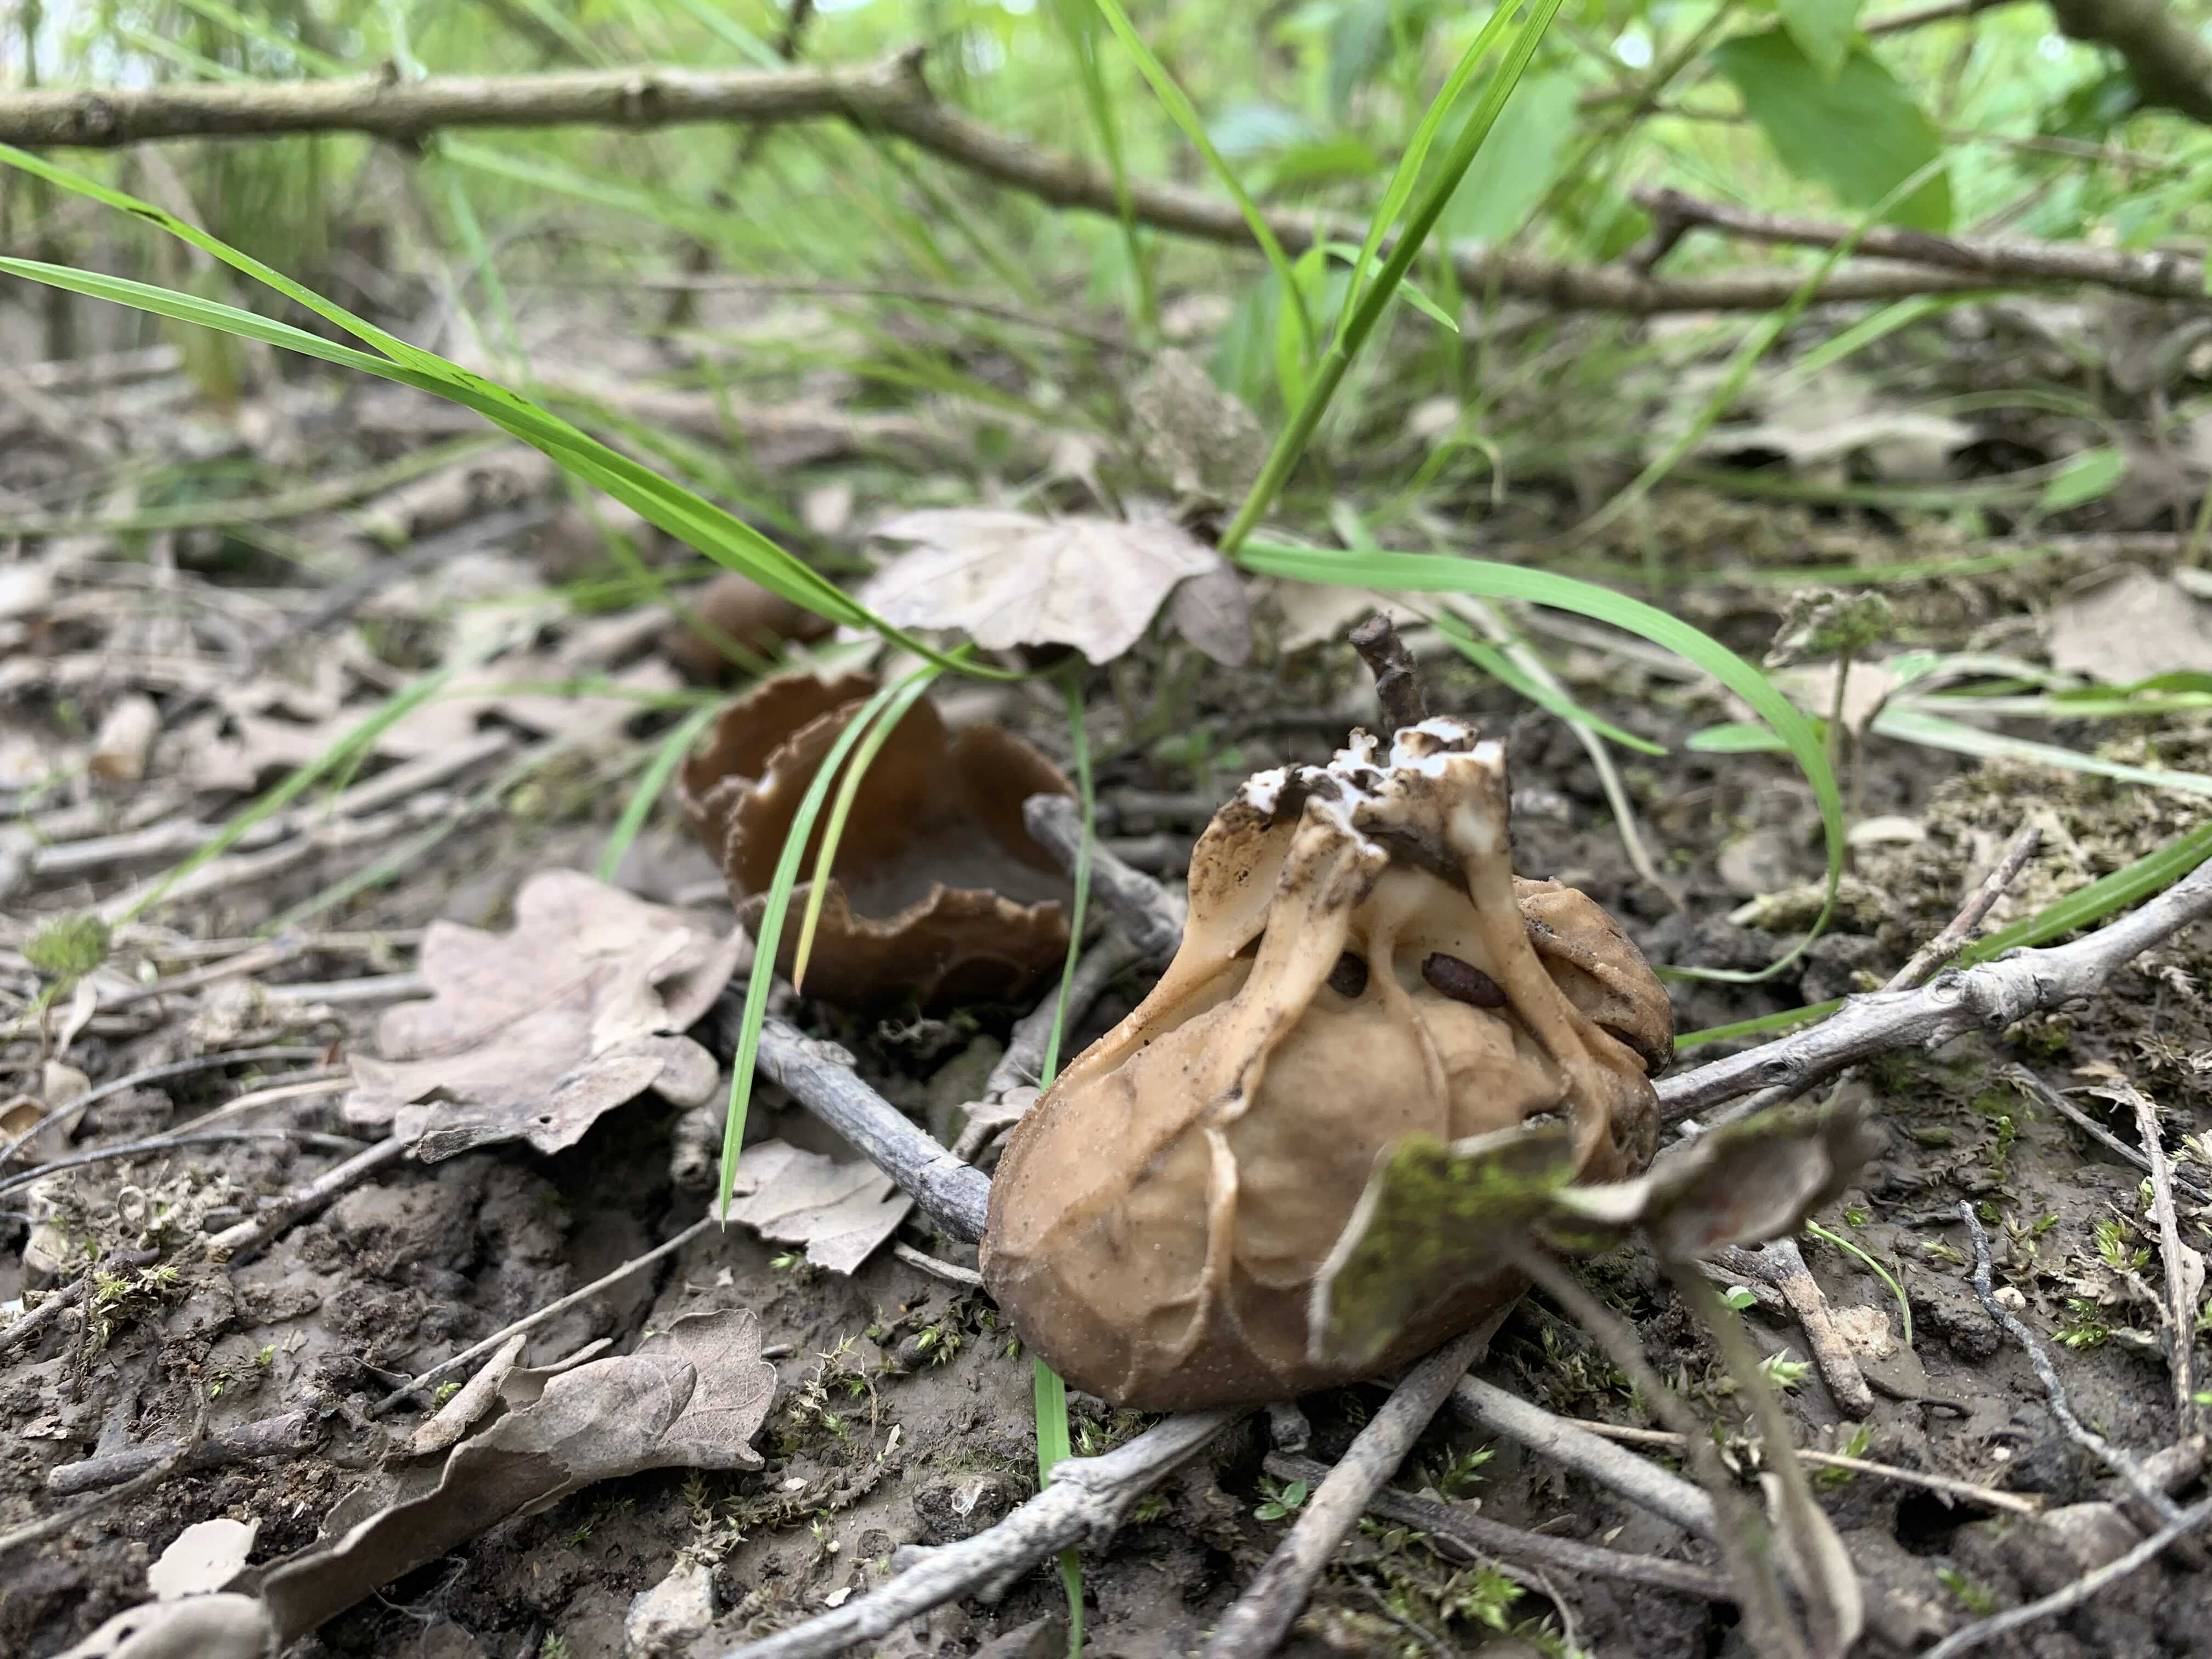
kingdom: Fungi
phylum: Ascomycota
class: Pezizomycetes
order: Pezizales
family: Helvellaceae
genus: Helvella
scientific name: Helvella acetabulum
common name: pokal-foldhat
